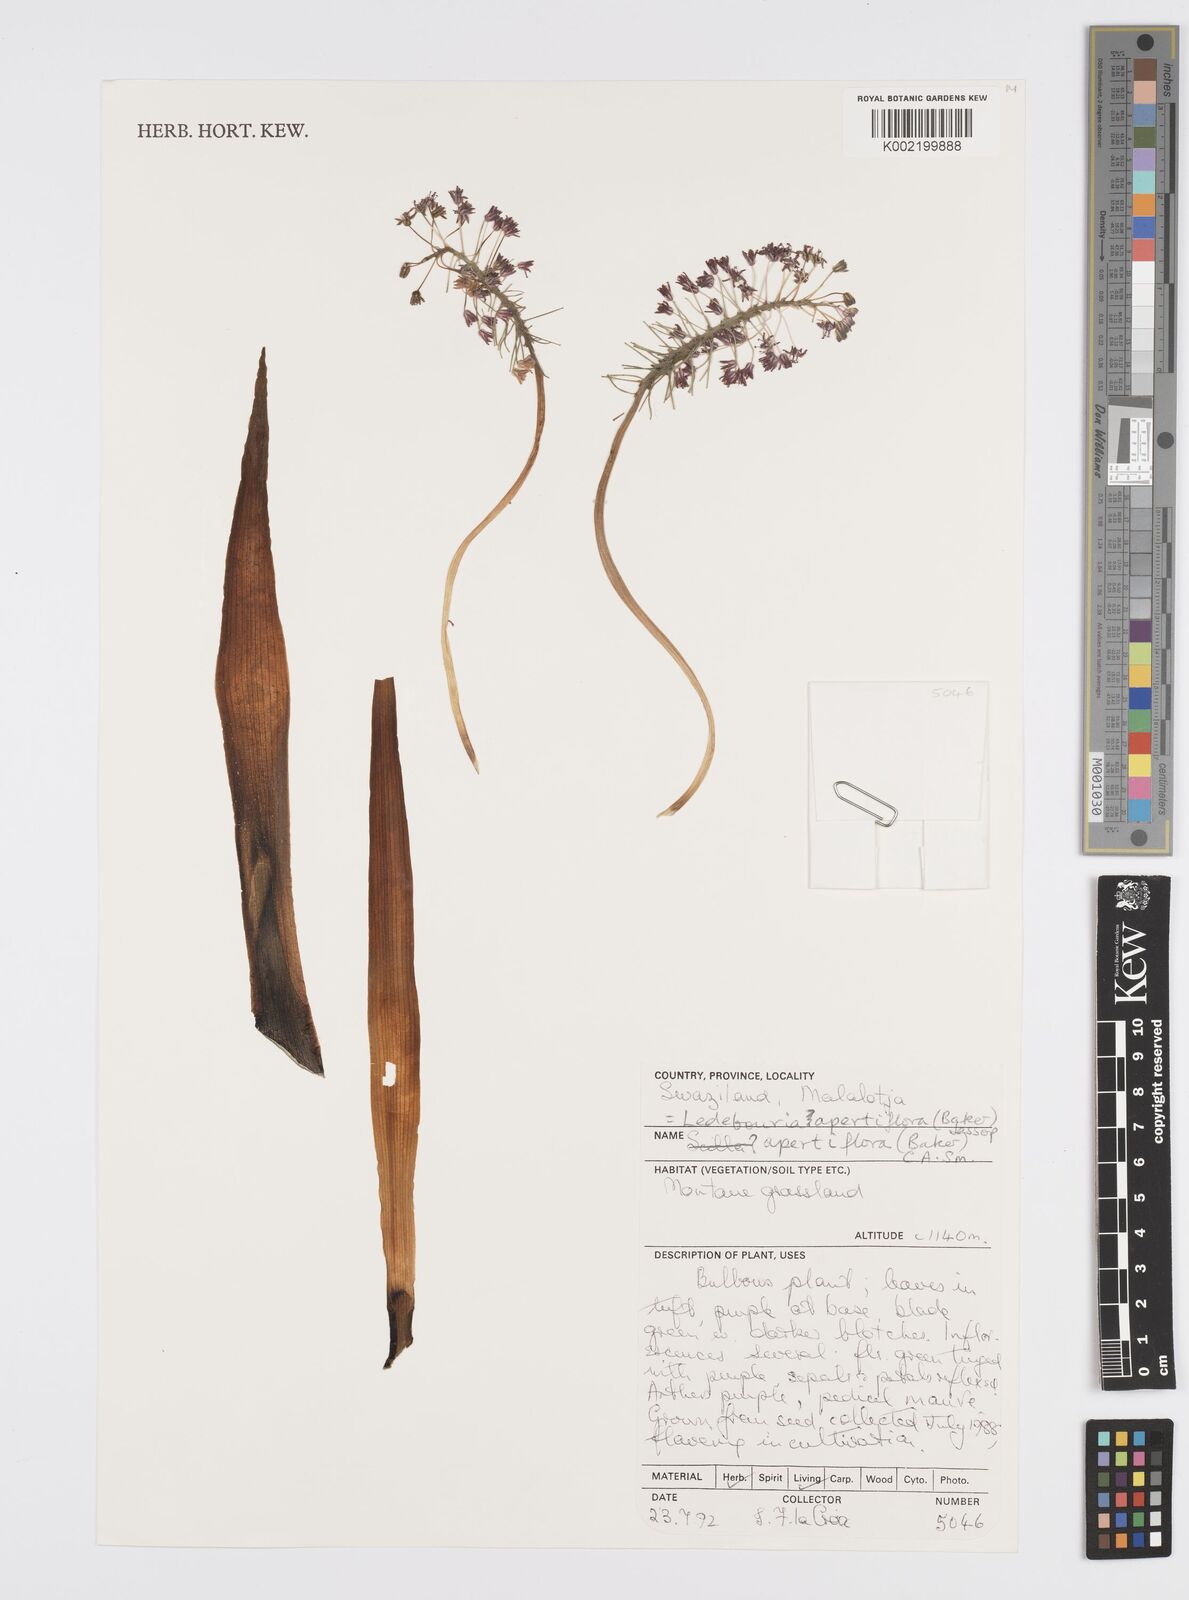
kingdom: Plantae
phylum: Tracheophyta
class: Liliopsida
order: Asparagales
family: Asparagaceae
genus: Ledebouria
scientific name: Ledebouria apertiflora
